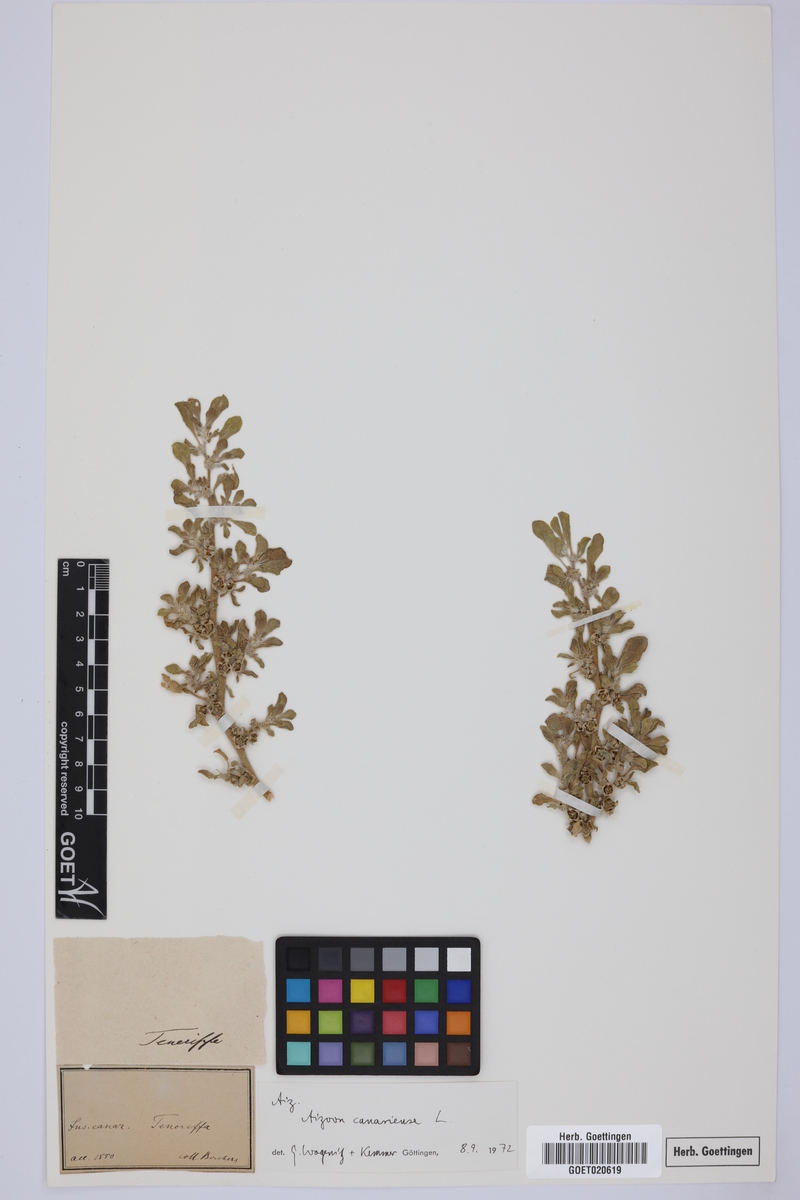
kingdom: Plantae
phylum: Tracheophyta
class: Magnoliopsida
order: Caryophyllales
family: Aizoaceae
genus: Aizoon
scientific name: Aizoon canariense
